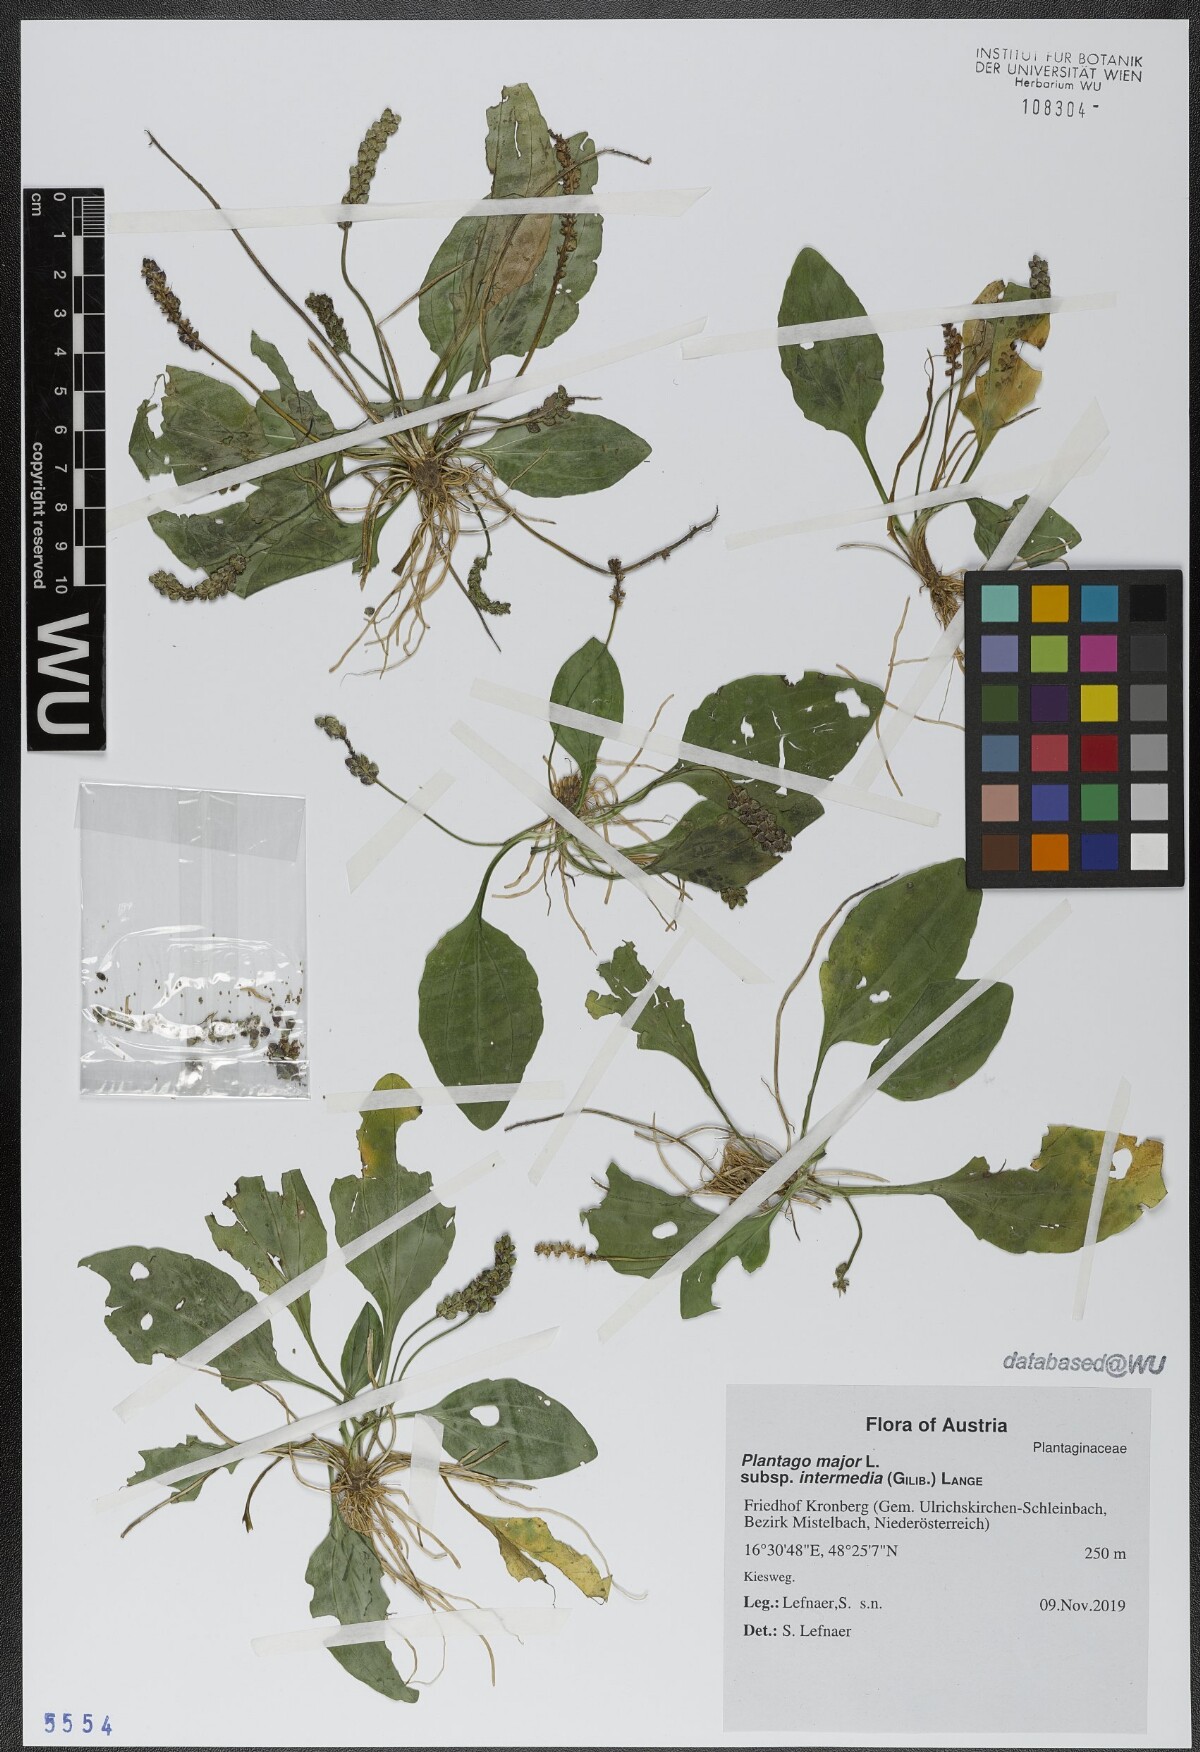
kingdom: Plantae
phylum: Tracheophyta
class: Magnoliopsida
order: Lamiales
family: Plantaginaceae
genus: Plantago
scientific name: Plantago uliginosa
